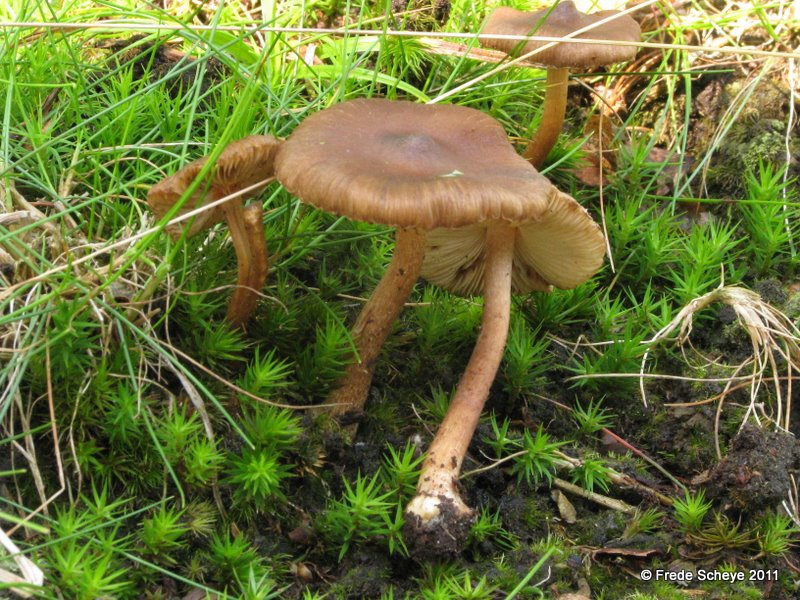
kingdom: Fungi
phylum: Basidiomycota
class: Agaricomycetes
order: Agaricales
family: Inocybaceae
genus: Inocybe
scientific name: Inocybe napipes
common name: roeknoldet trævlhat
